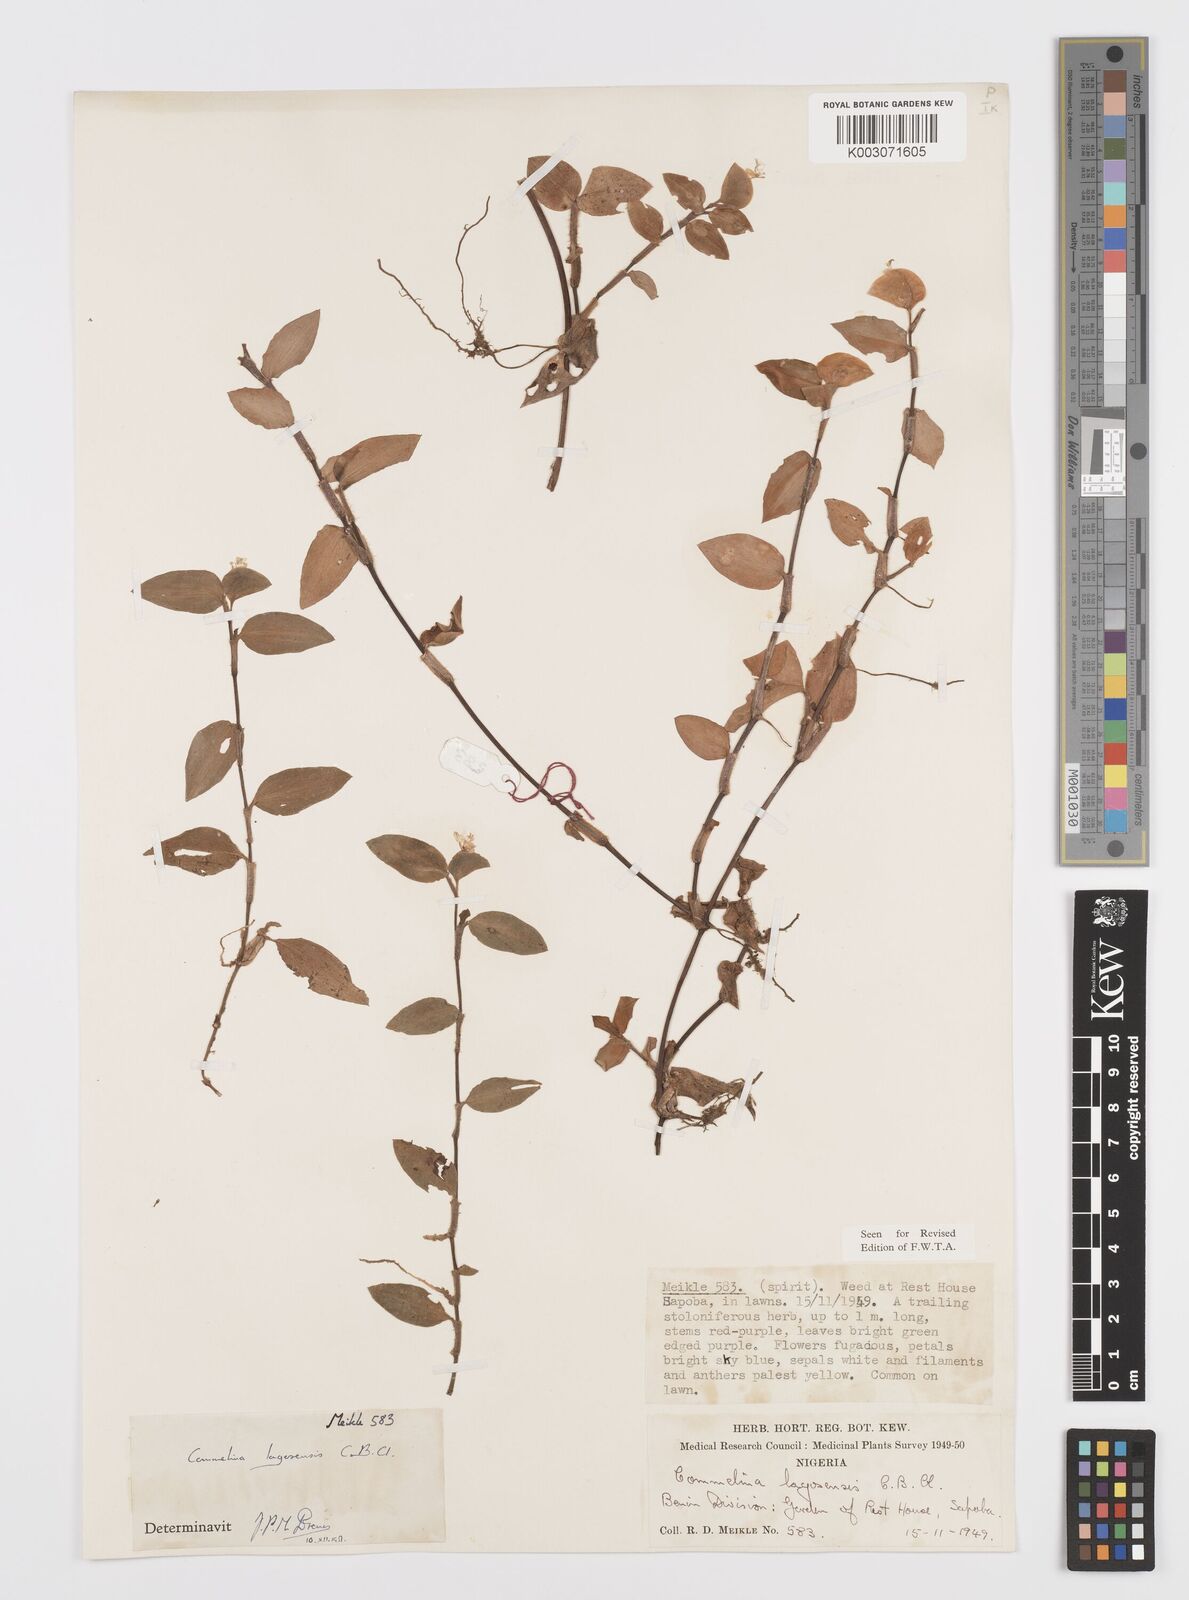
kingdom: Plantae
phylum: Tracheophyta
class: Liliopsida
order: Commelinales
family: Commelinaceae
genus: Commelina
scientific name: Commelina bracteosa
